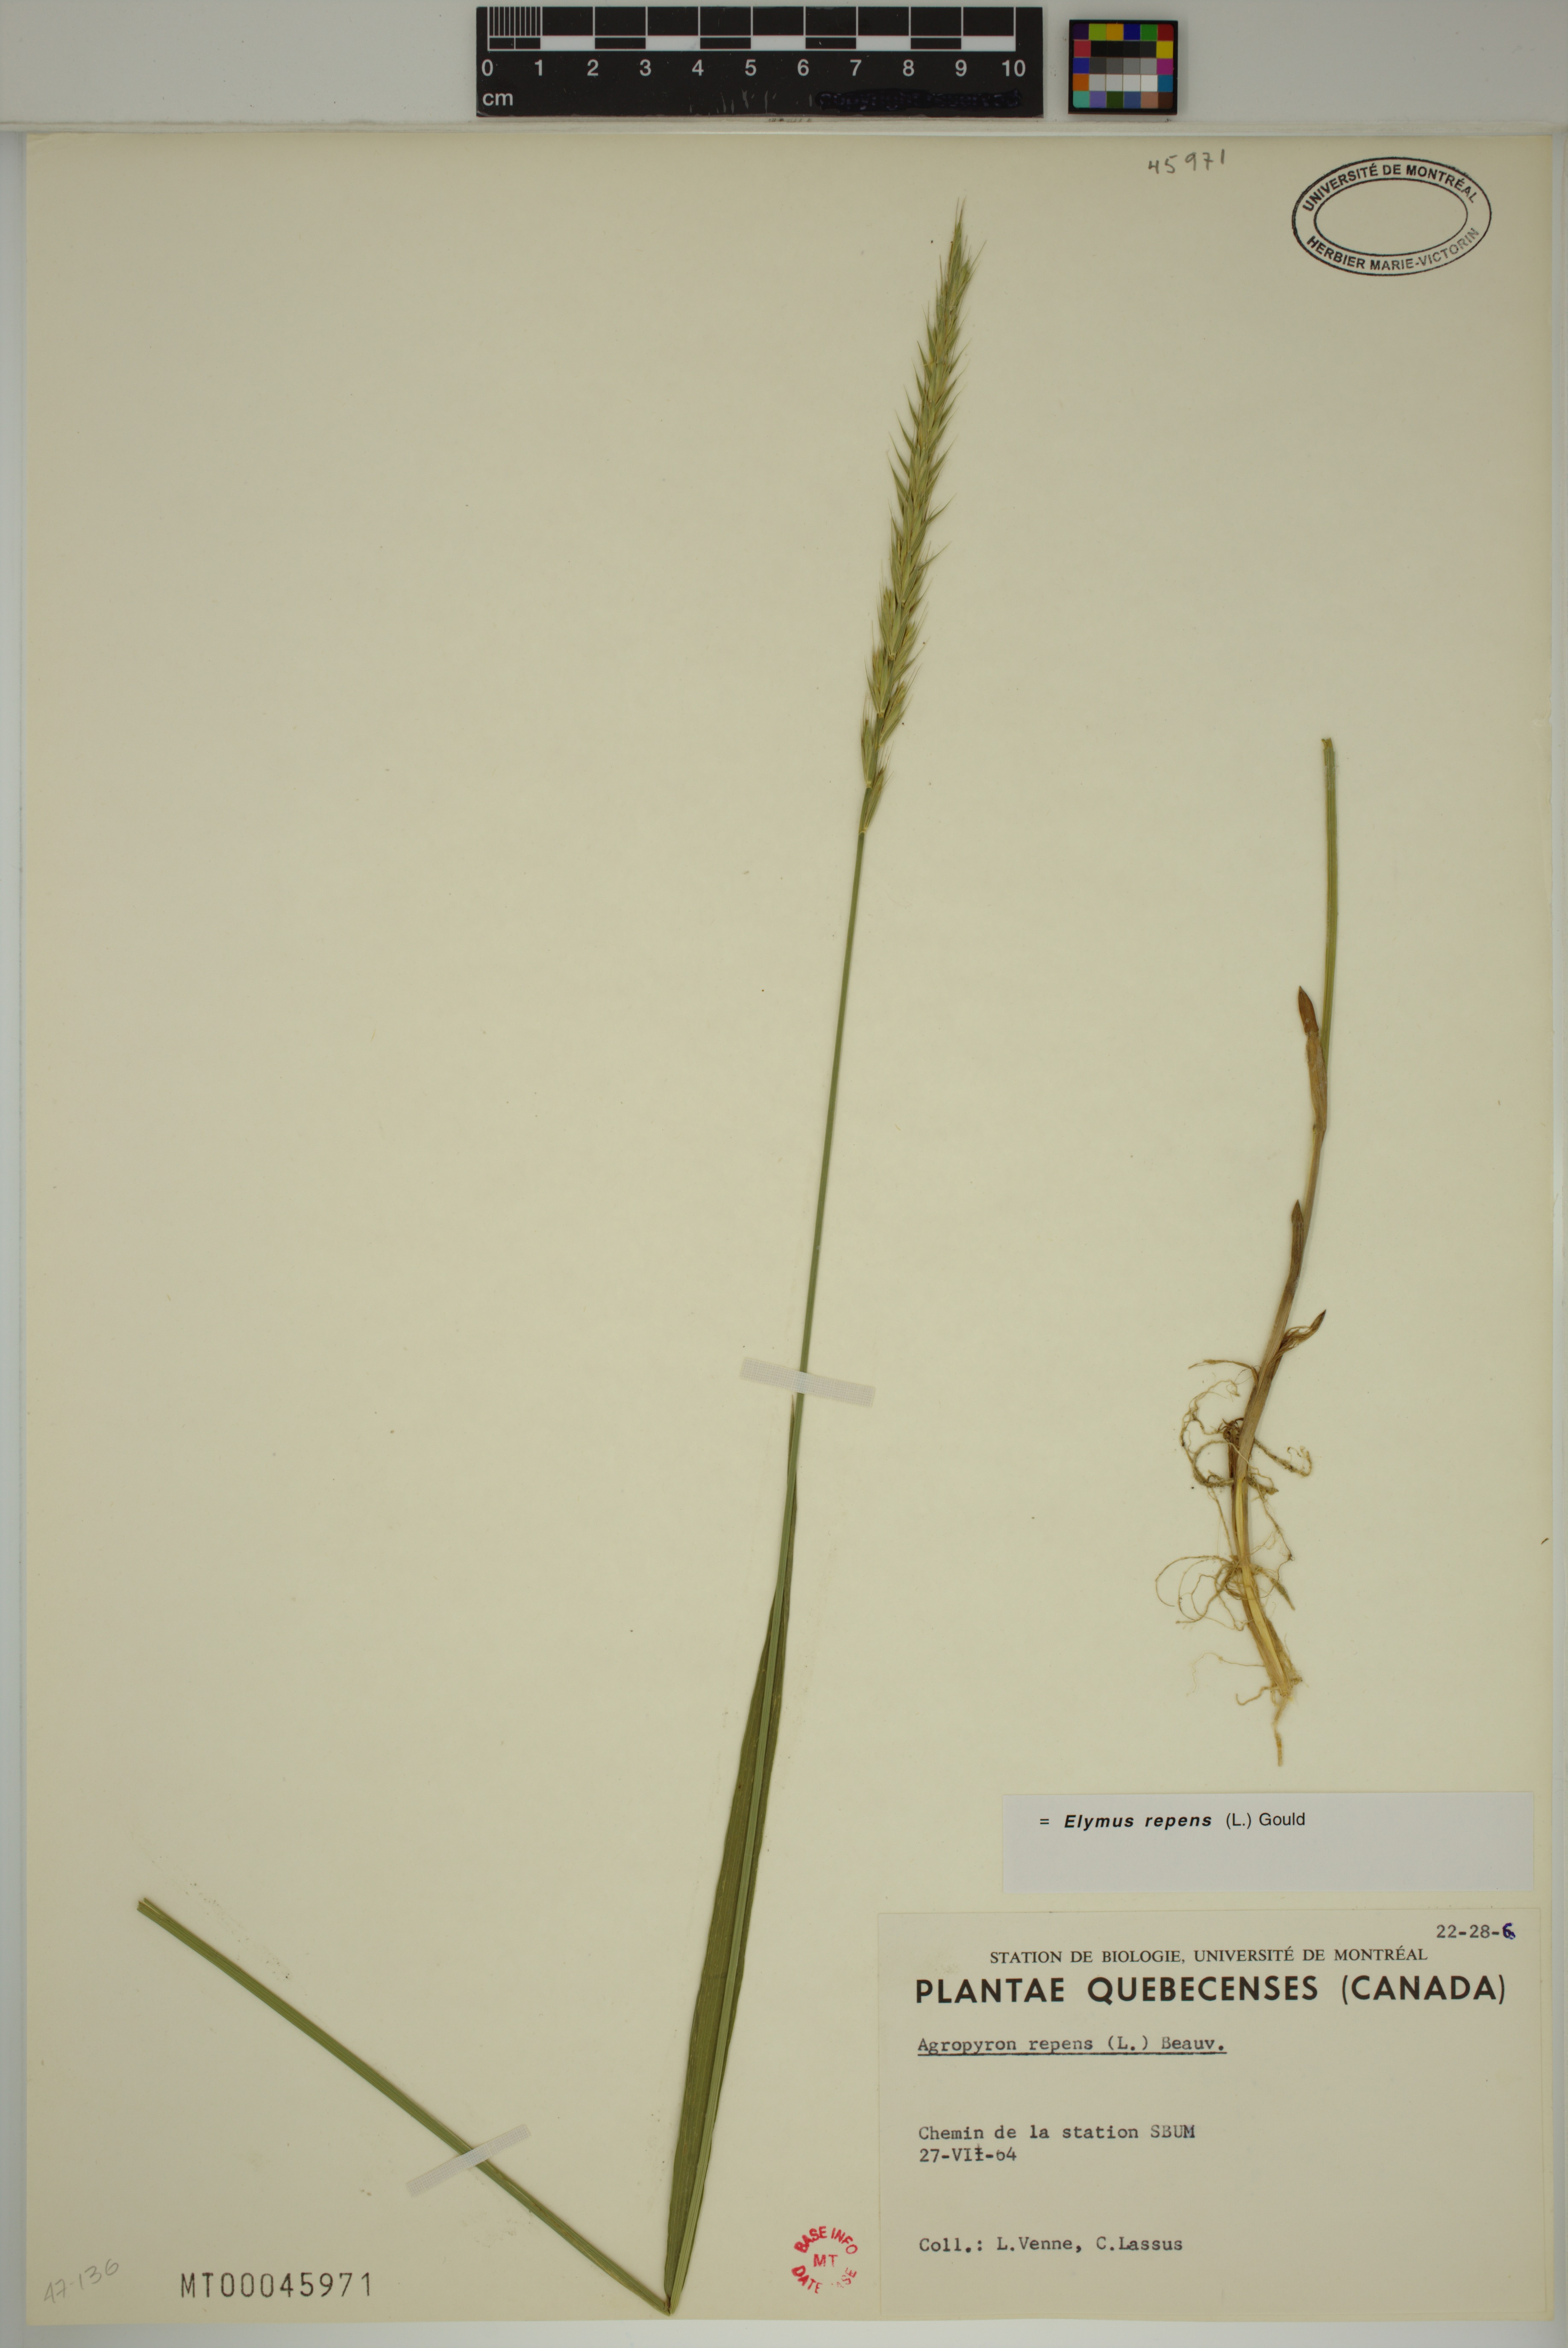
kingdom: Plantae
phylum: Tracheophyta
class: Liliopsida
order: Poales
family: Poaceae
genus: Elymus
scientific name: Elymus repens
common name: Quackgrass
